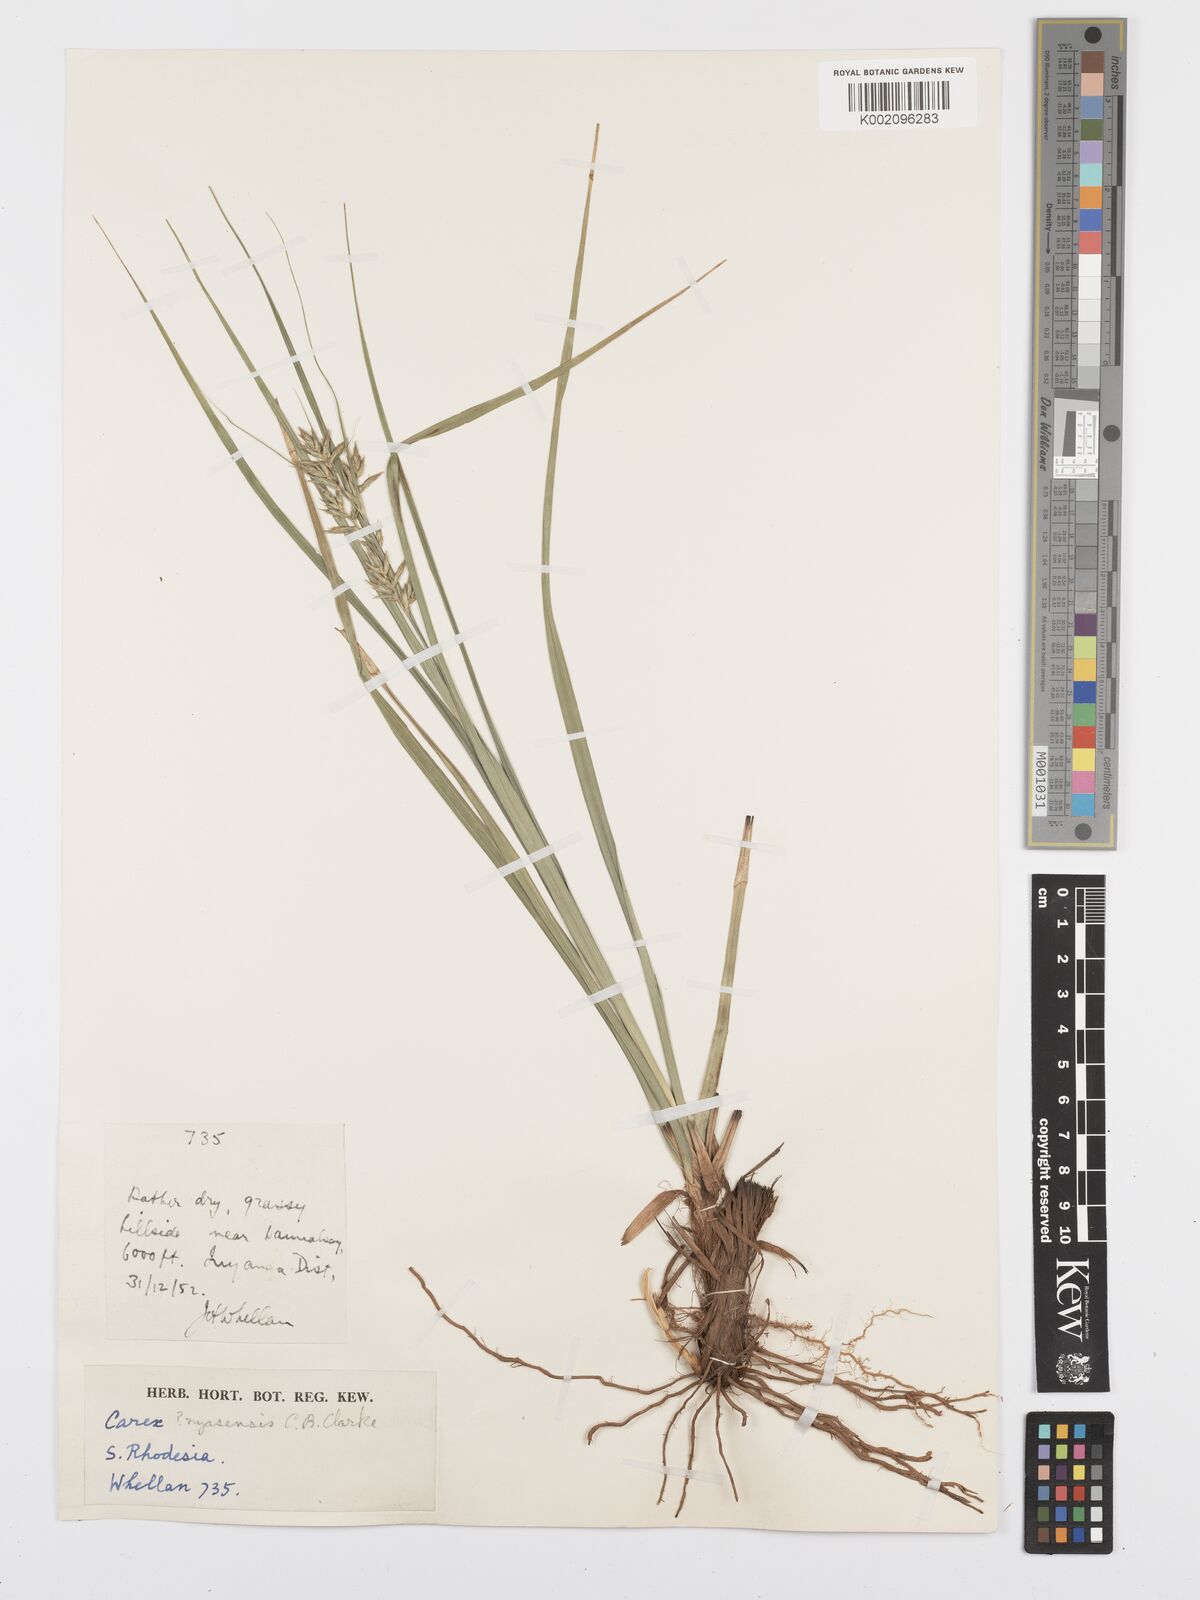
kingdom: Plantae
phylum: Tracheophyta
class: Liliopsida
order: Poales
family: Cyperaceae
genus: Carex
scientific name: Carex spicatopaniculata
